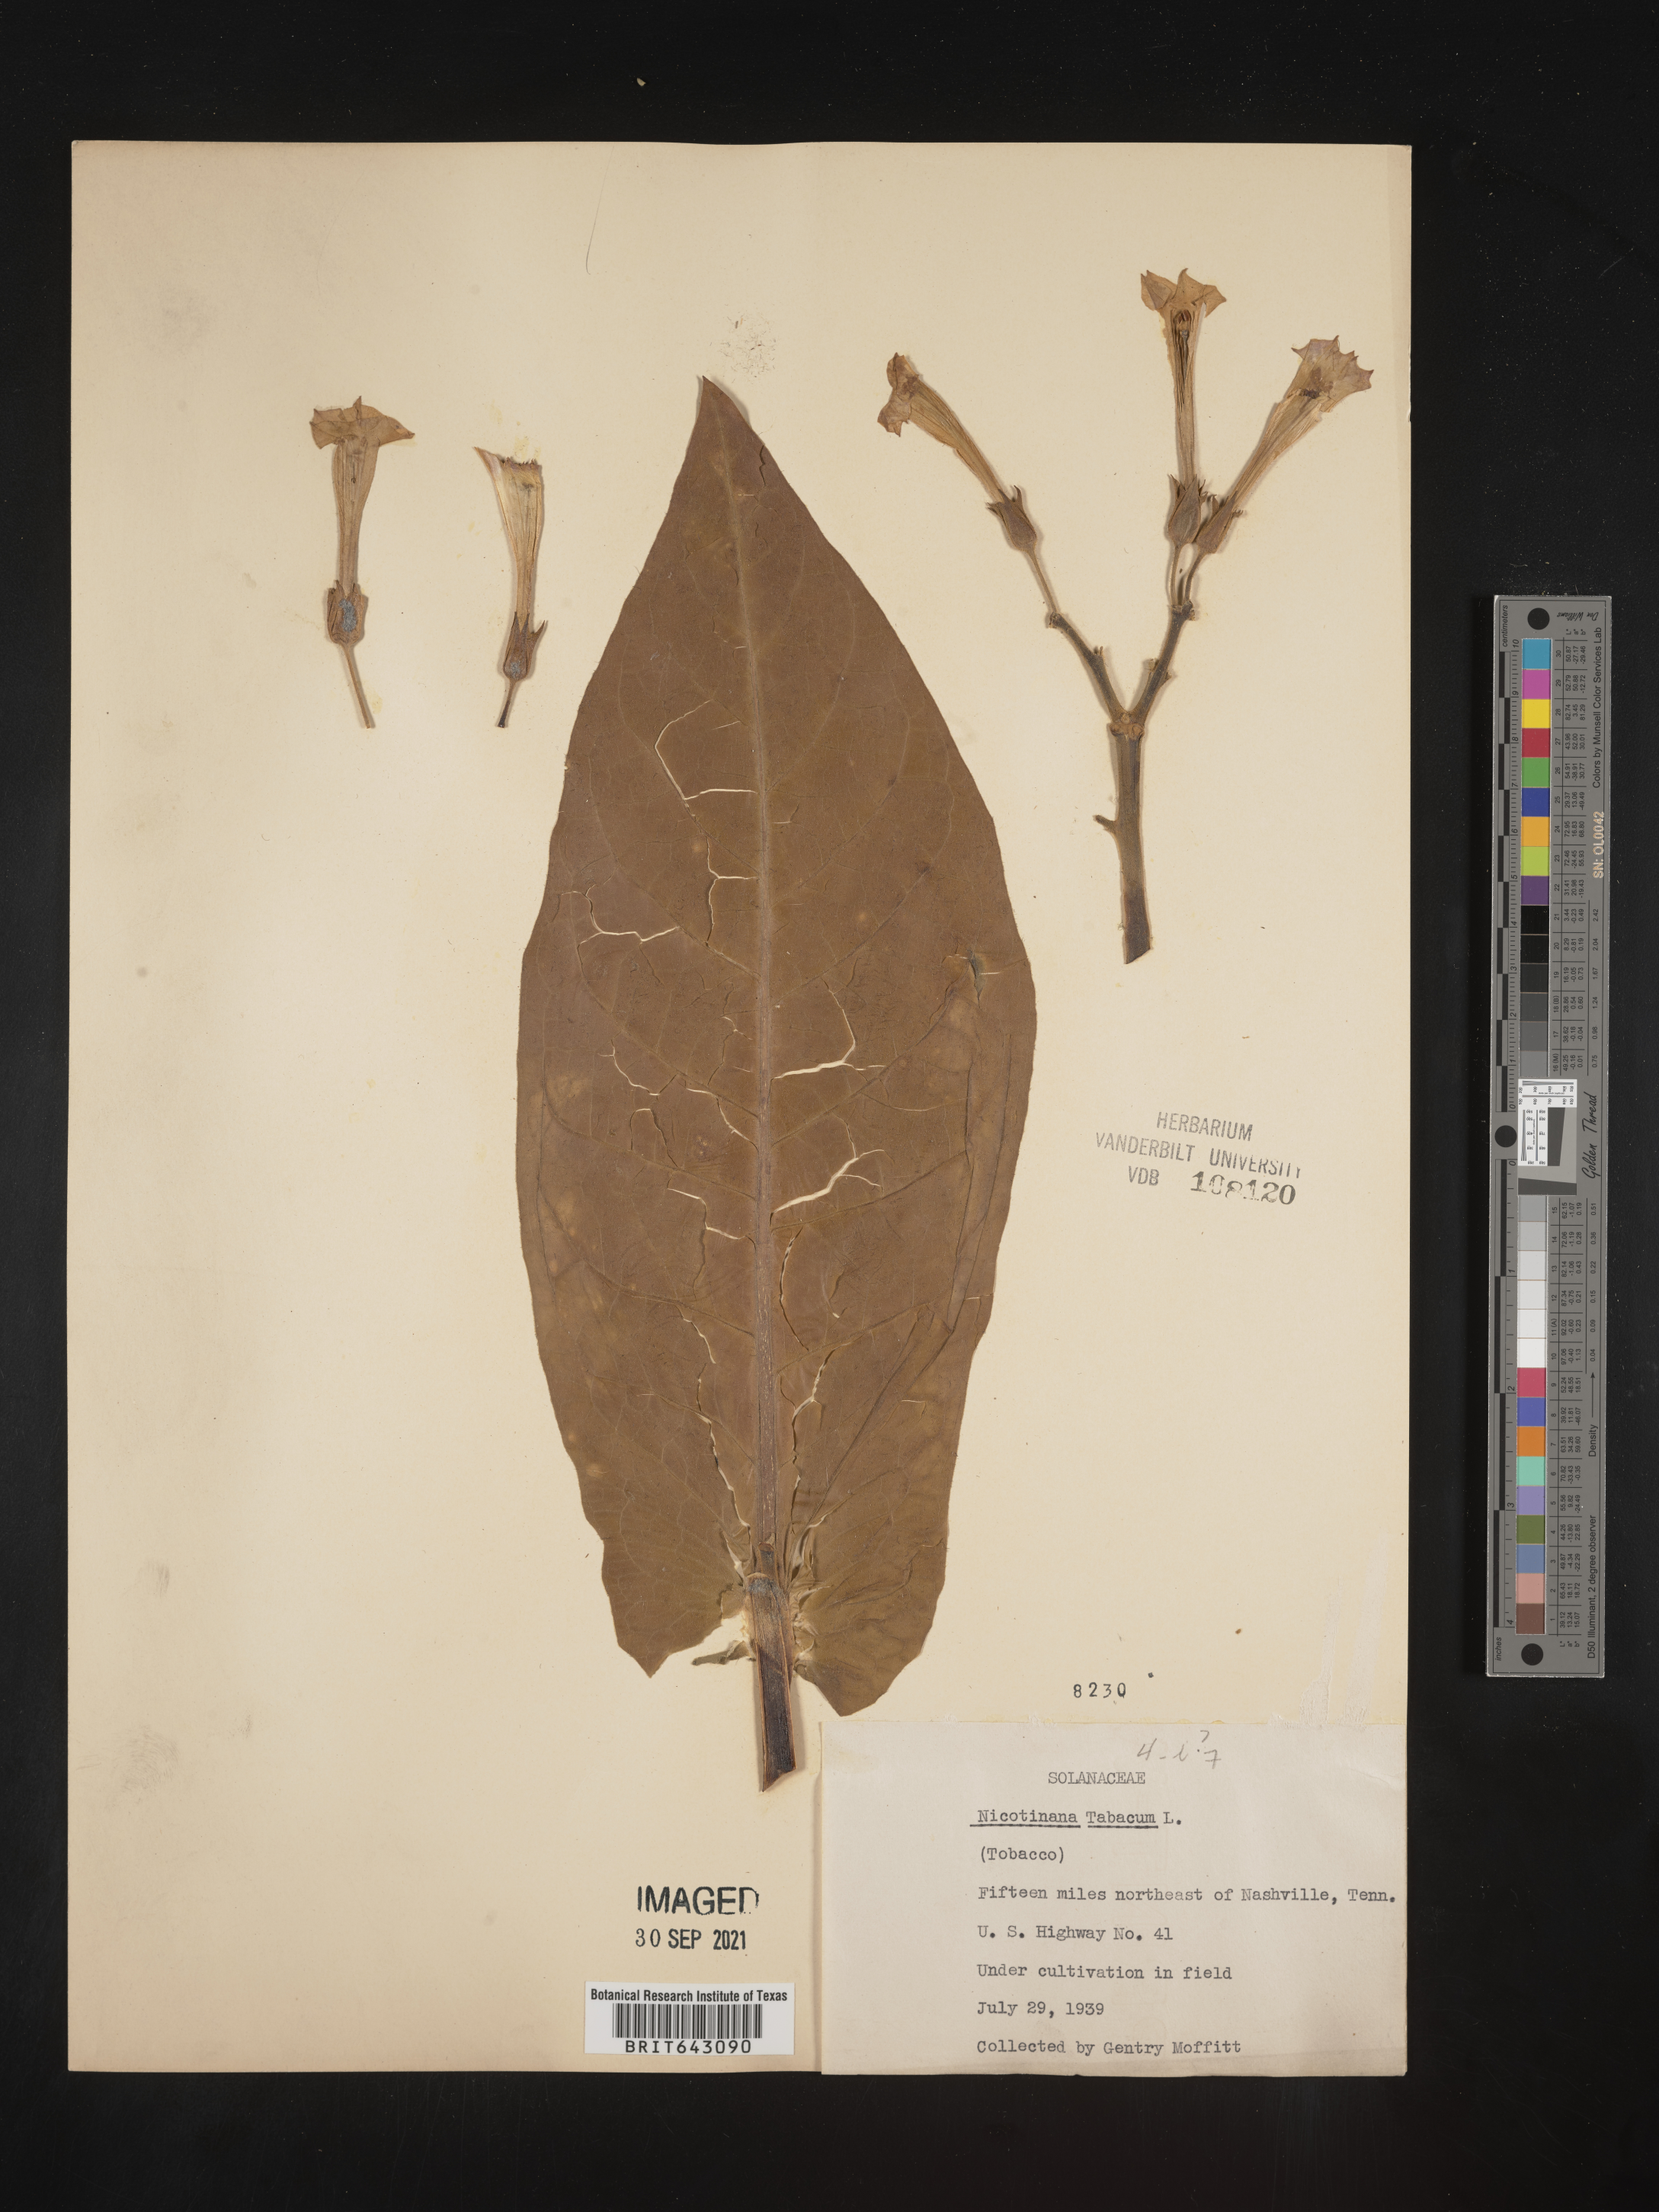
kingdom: Plantae
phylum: Tracheophyta
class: Magnoliopsida
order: Solanales
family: Solanaceae
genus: Nicotiana
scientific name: Nicotiana
